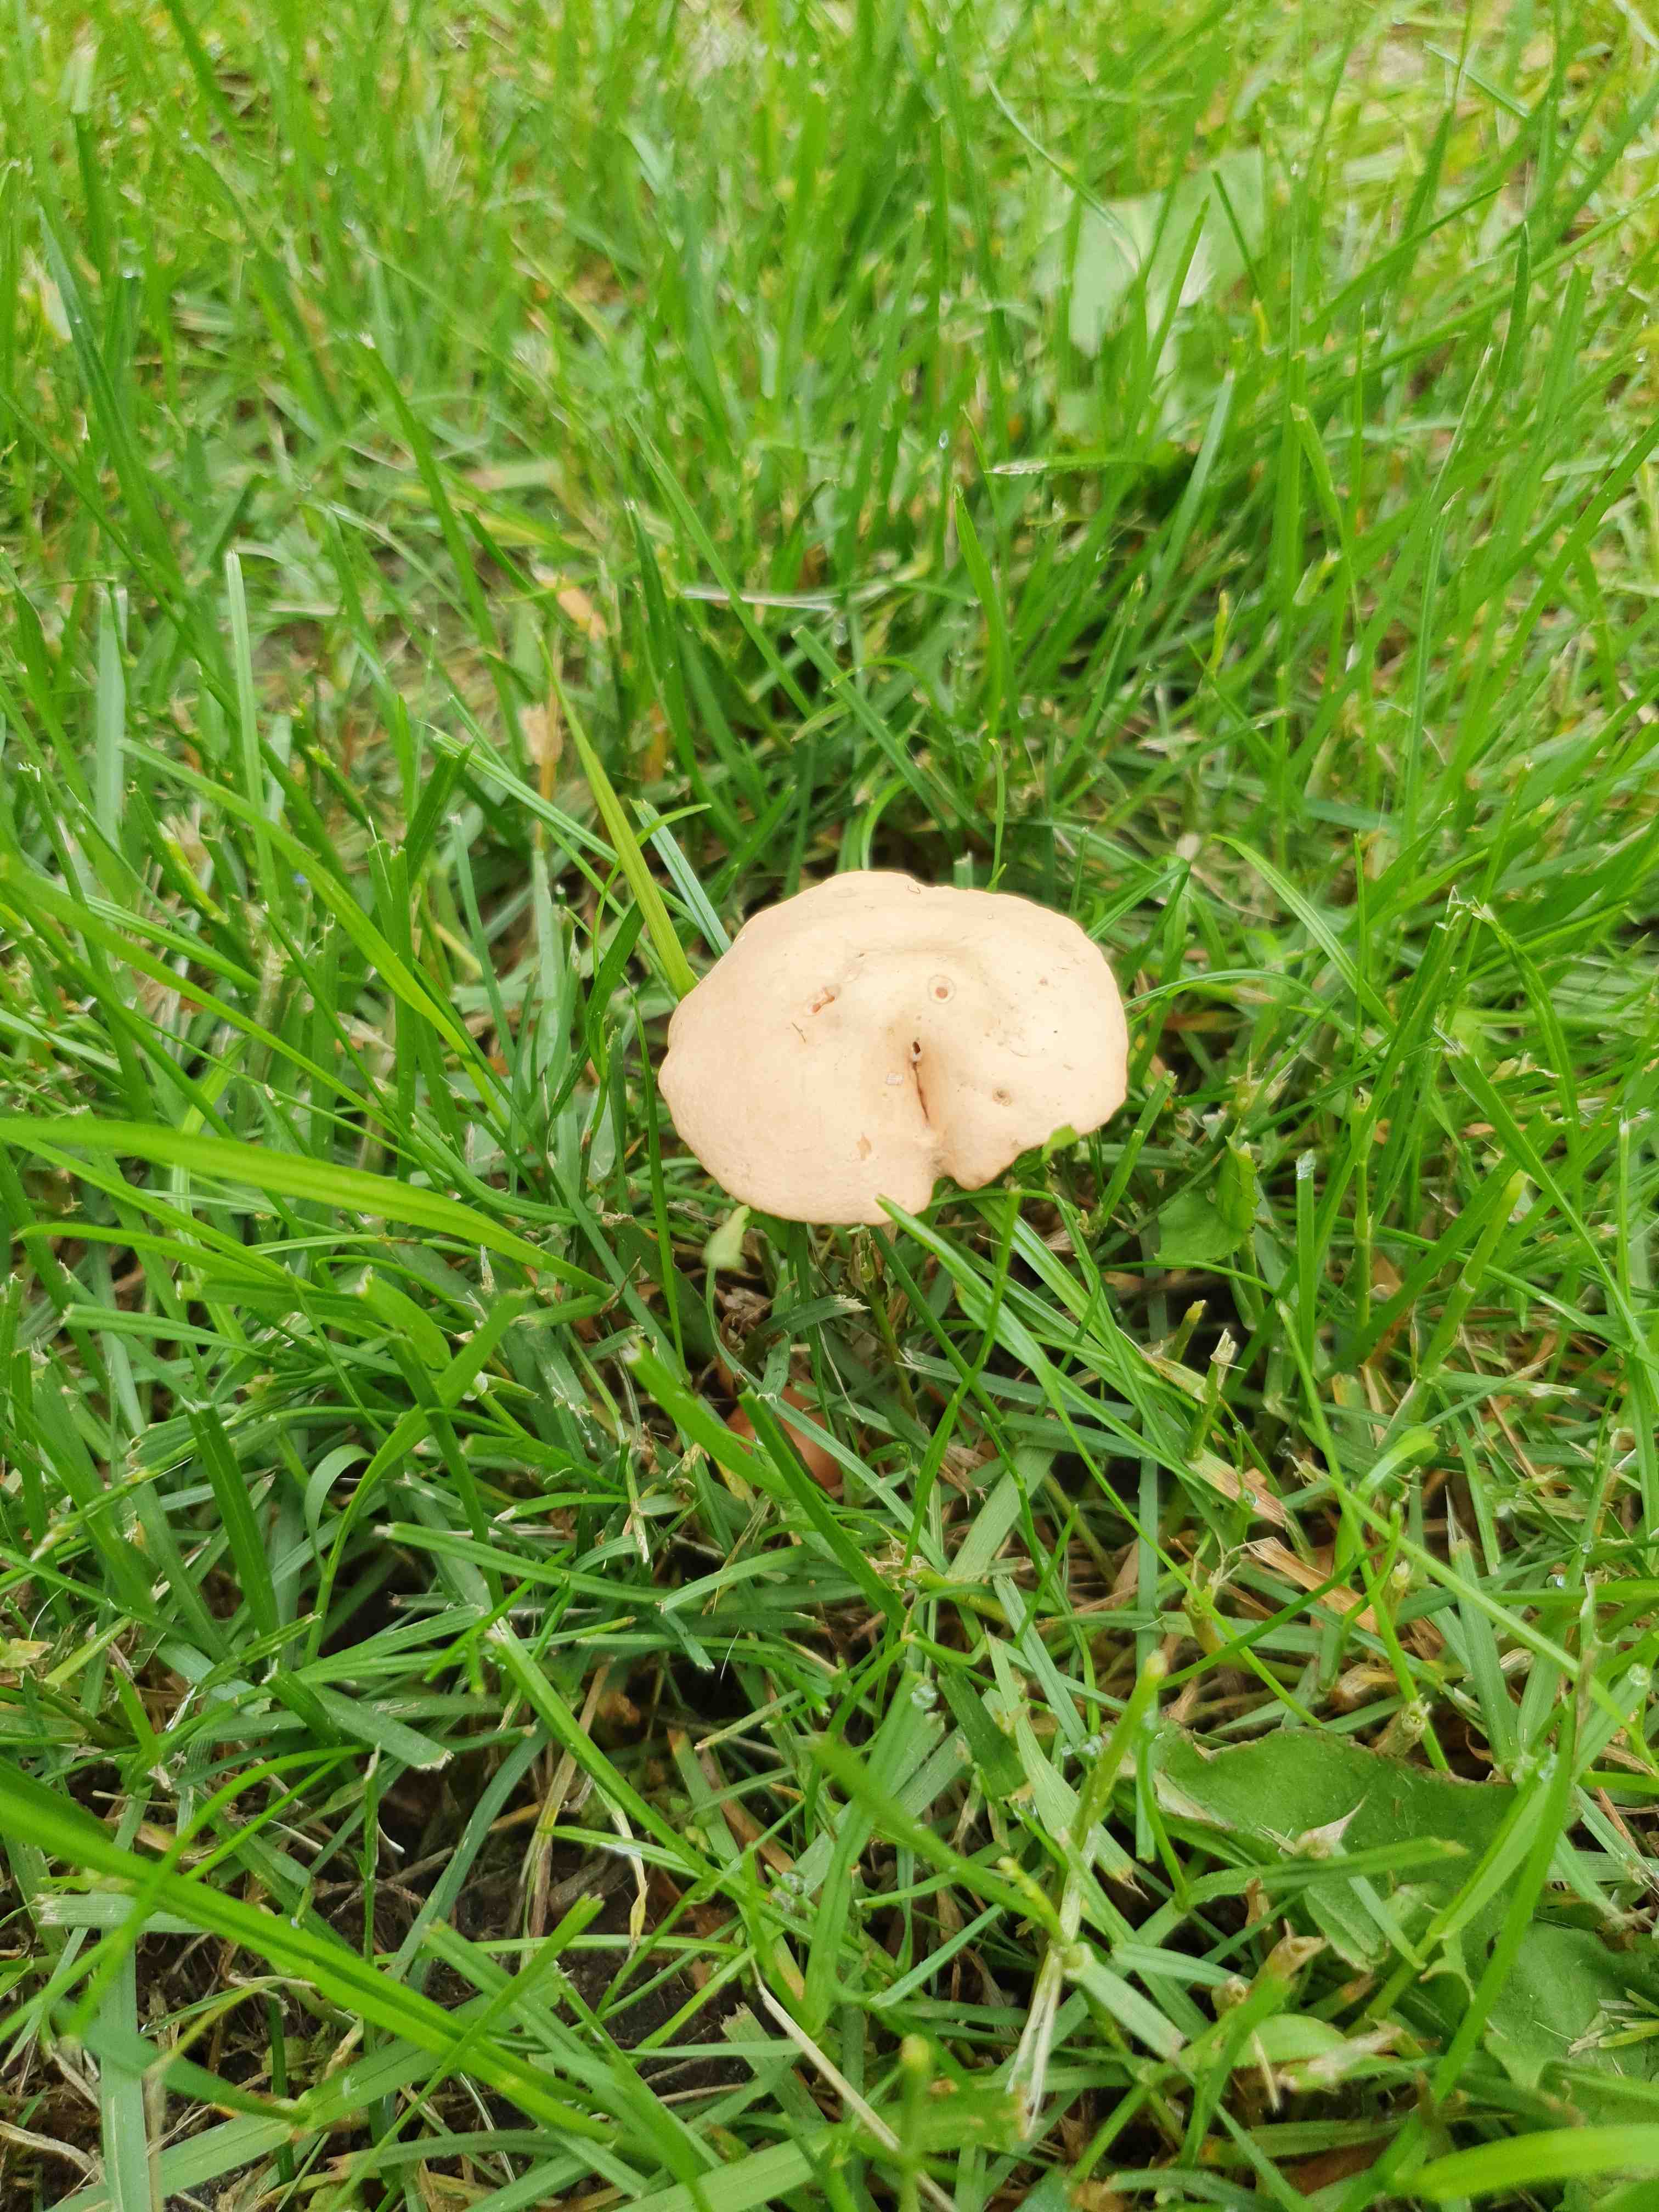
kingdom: Fungi
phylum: Basidiomycota
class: Agaricomycetes
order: Agaricales
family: Marasmiaceae
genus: Marasmius
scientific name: Marasmius oreades
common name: elledans-bruskhat
